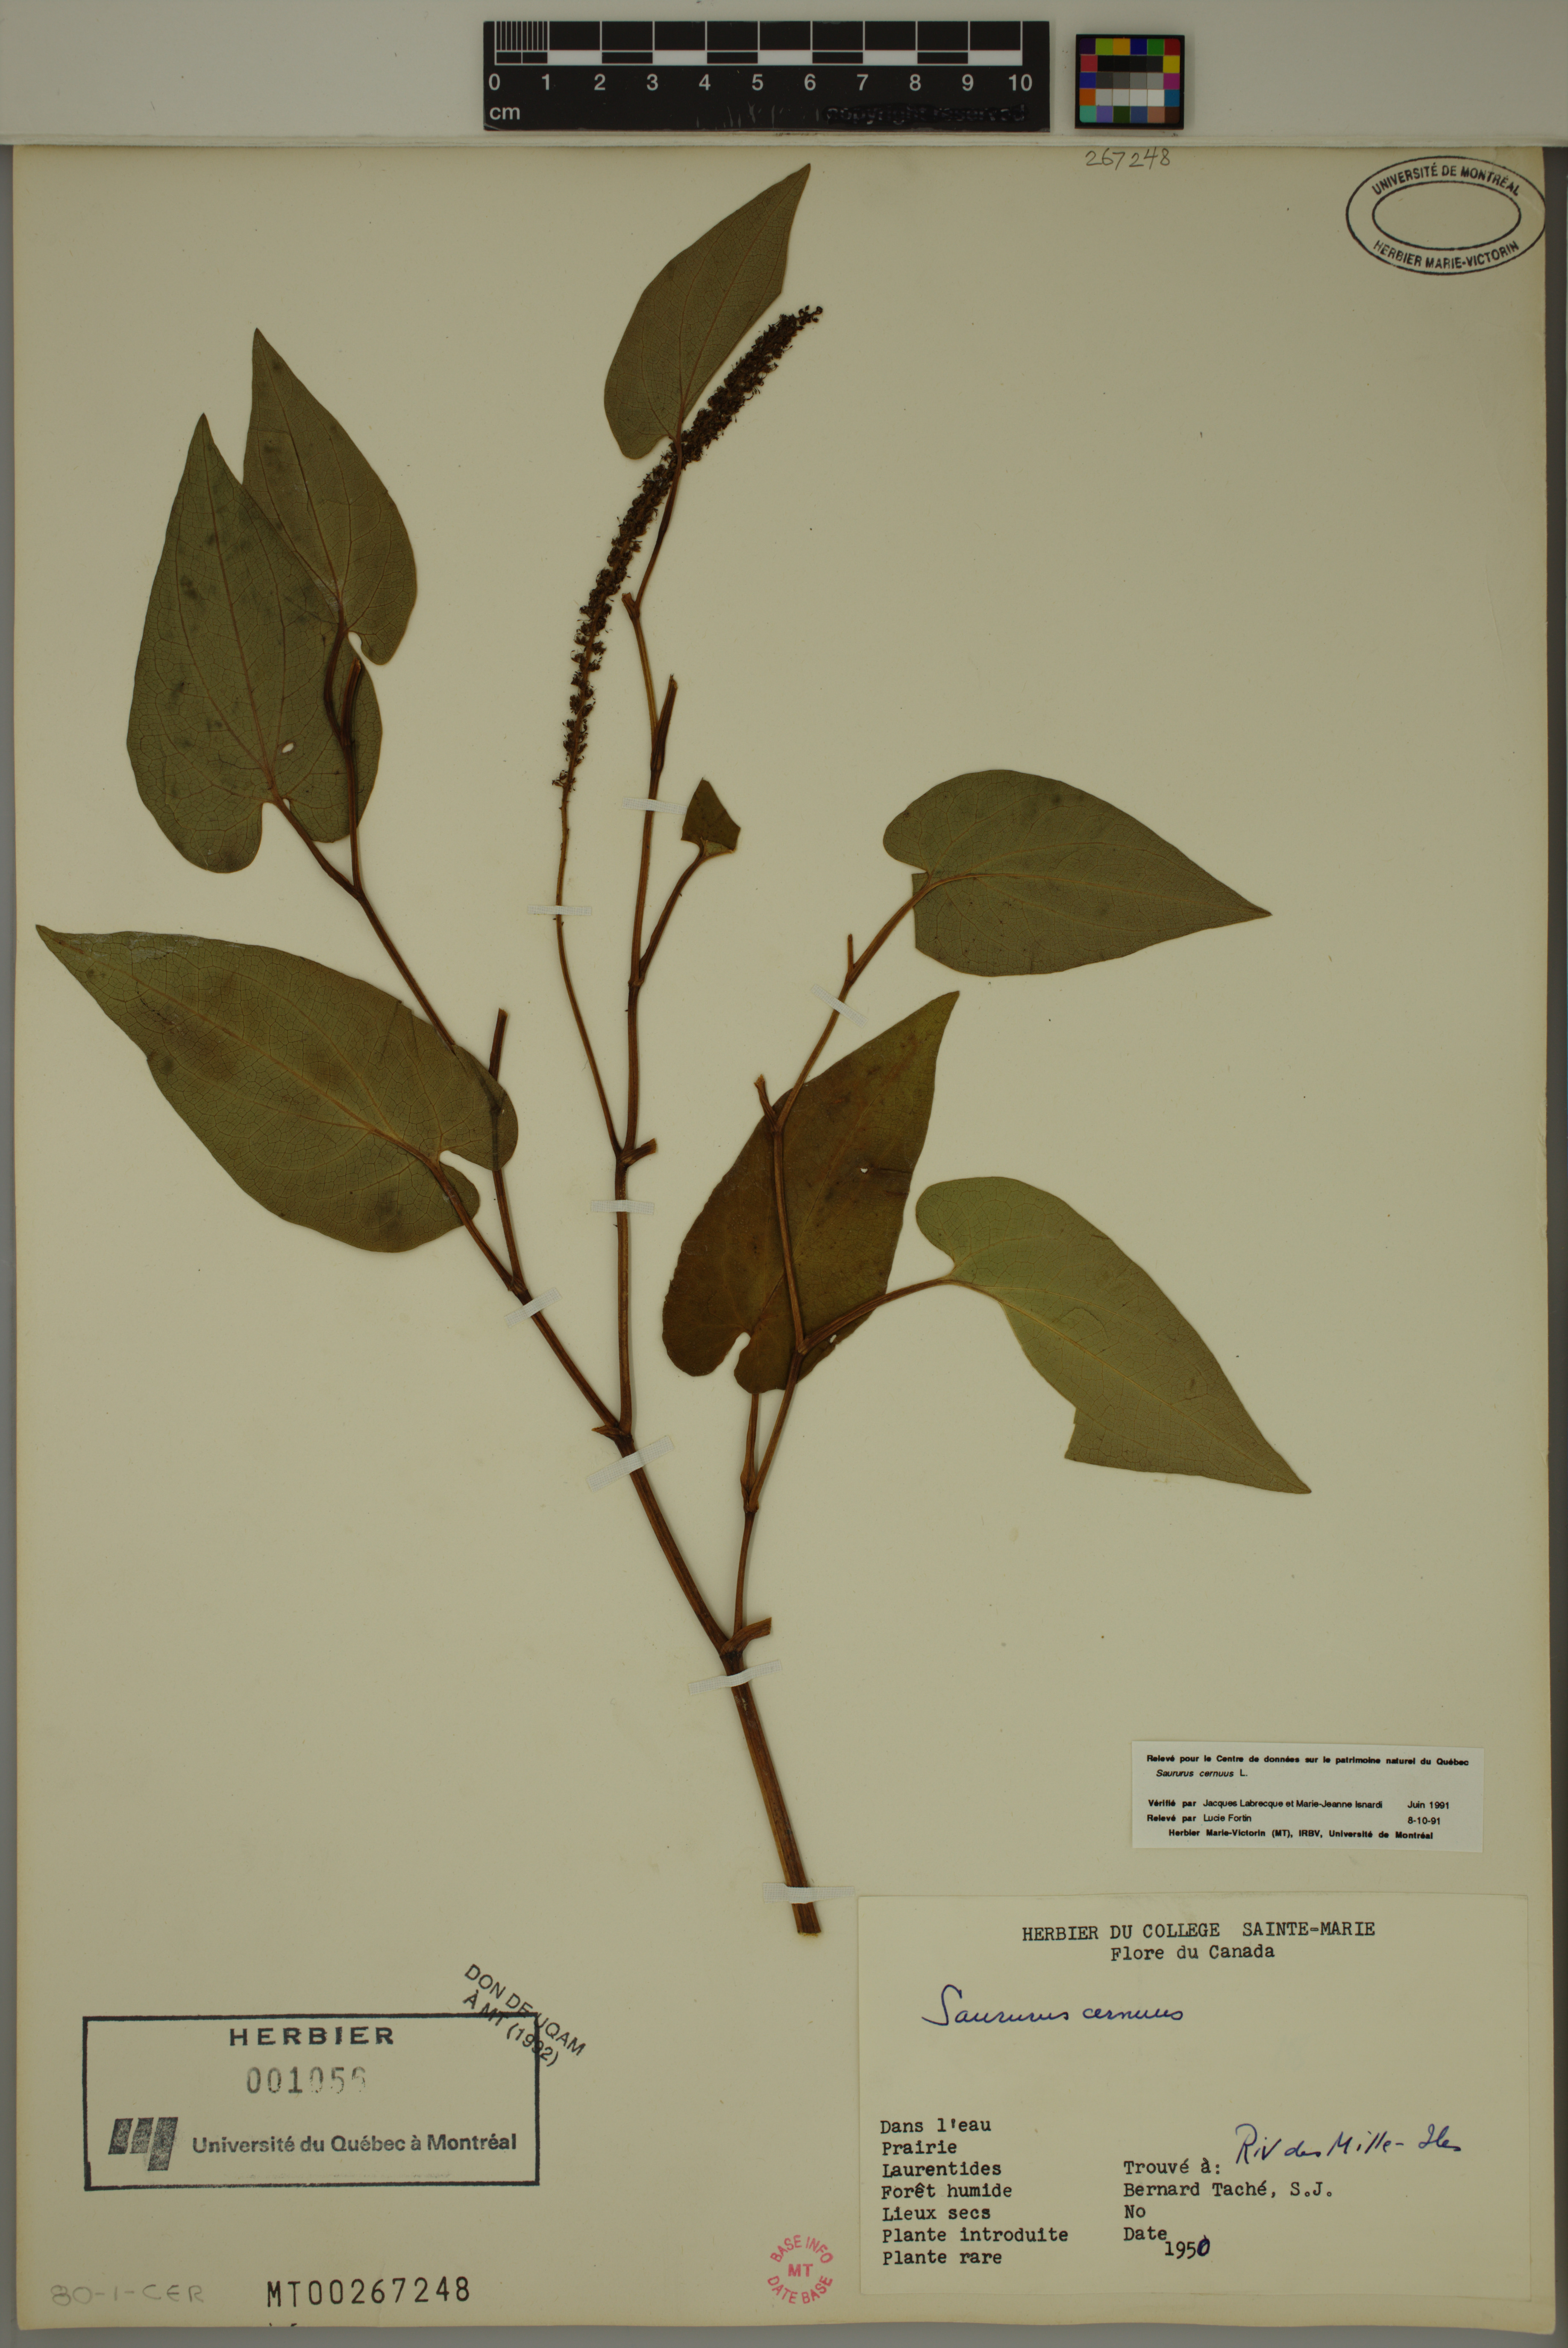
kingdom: Plantae
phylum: Tracheophyta
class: Magnoliopsida
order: Piperales
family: Saururaceae
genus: Saururus
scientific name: Saururus cernuus
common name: Lizard's-tail
